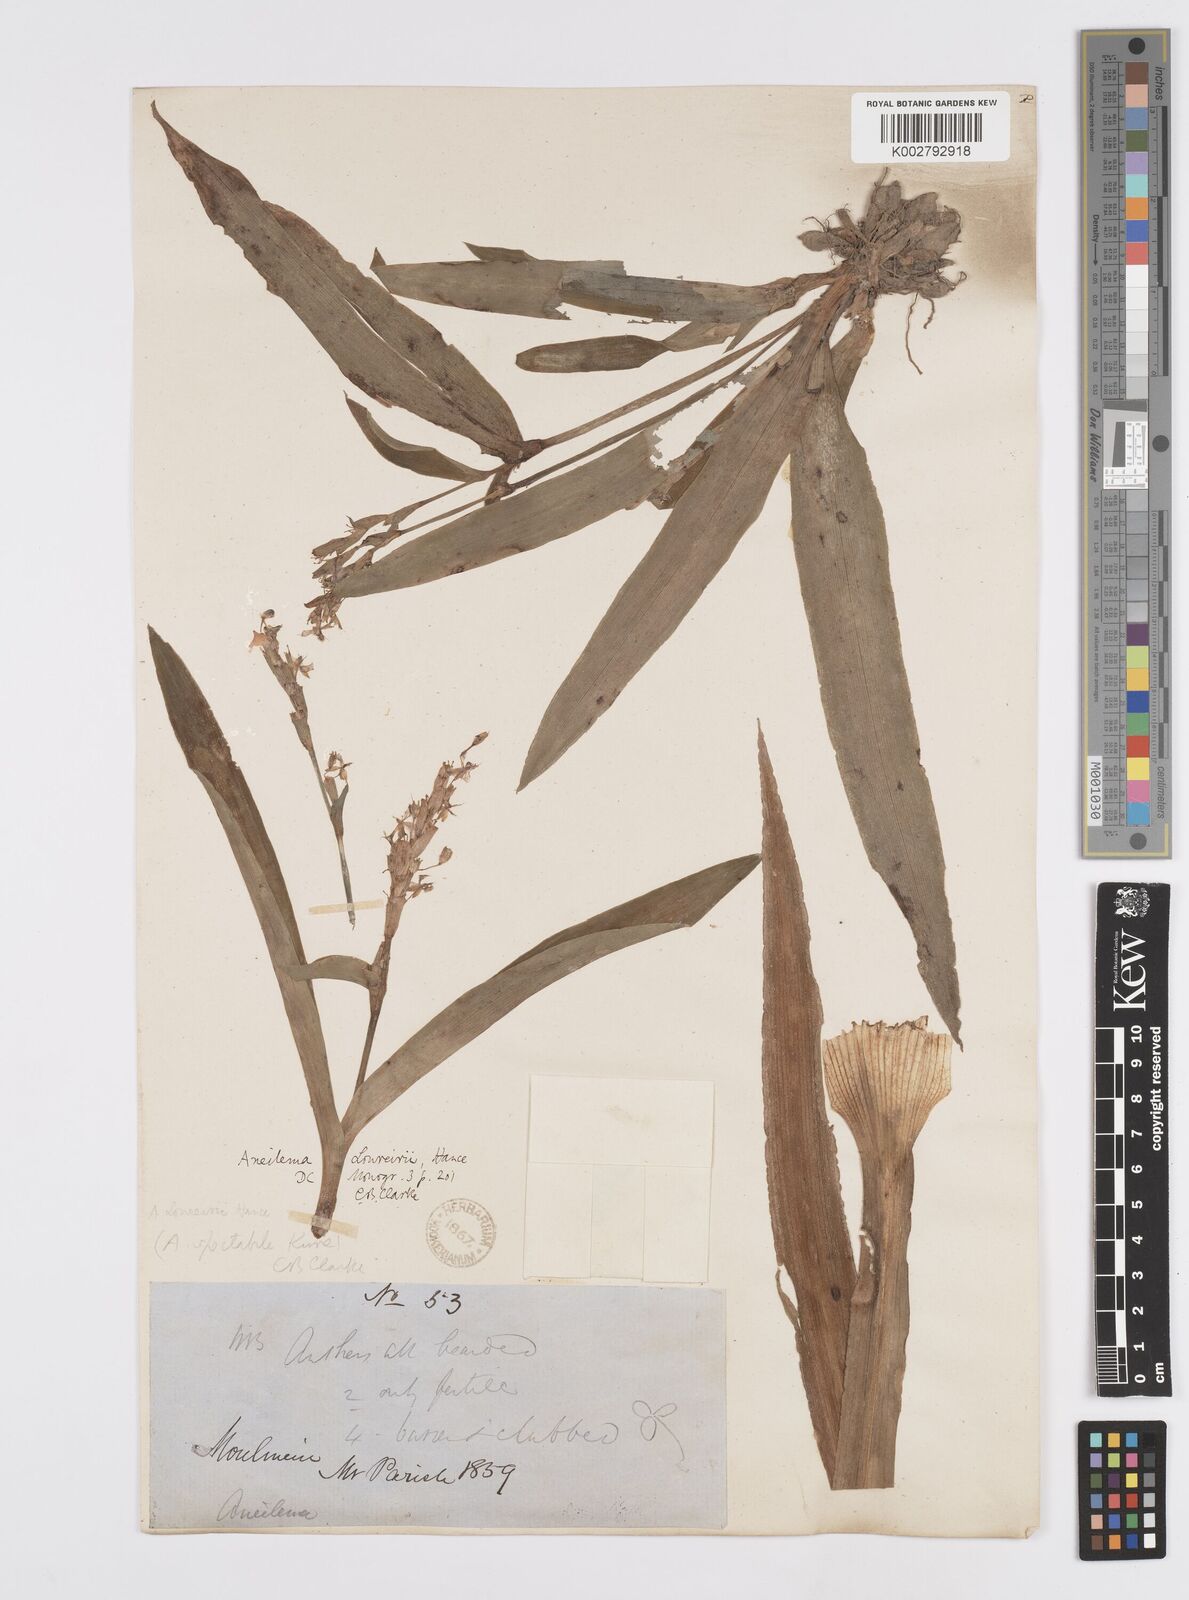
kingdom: Plantae
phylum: Tracheophyta
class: Liliopsida
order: Commelinales
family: Commelinaceae
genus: Murdannia
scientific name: Murdannia edulis
